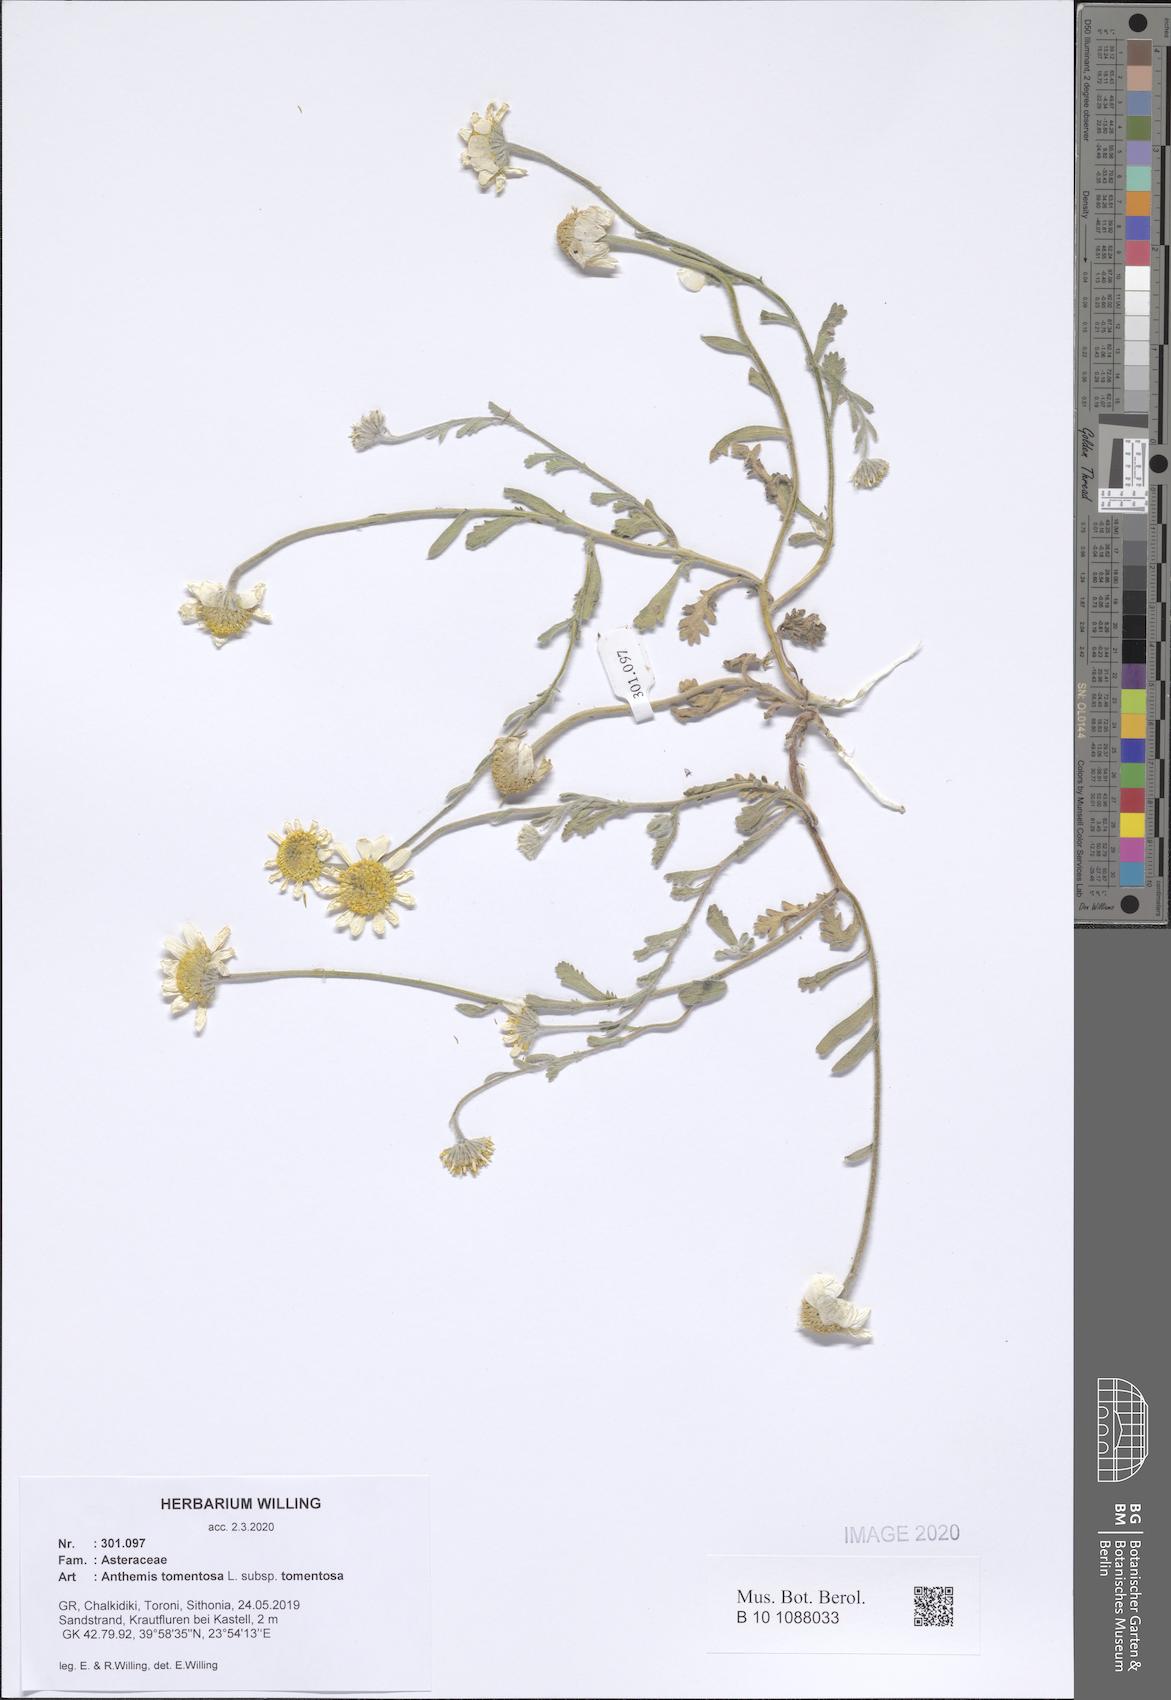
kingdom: Plantae
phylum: Tracheophyta
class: Magnoliopsida
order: Asterales
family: Asteraceae
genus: Anthemis
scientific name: Anthemis tomentosa
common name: Woolly chamomile
